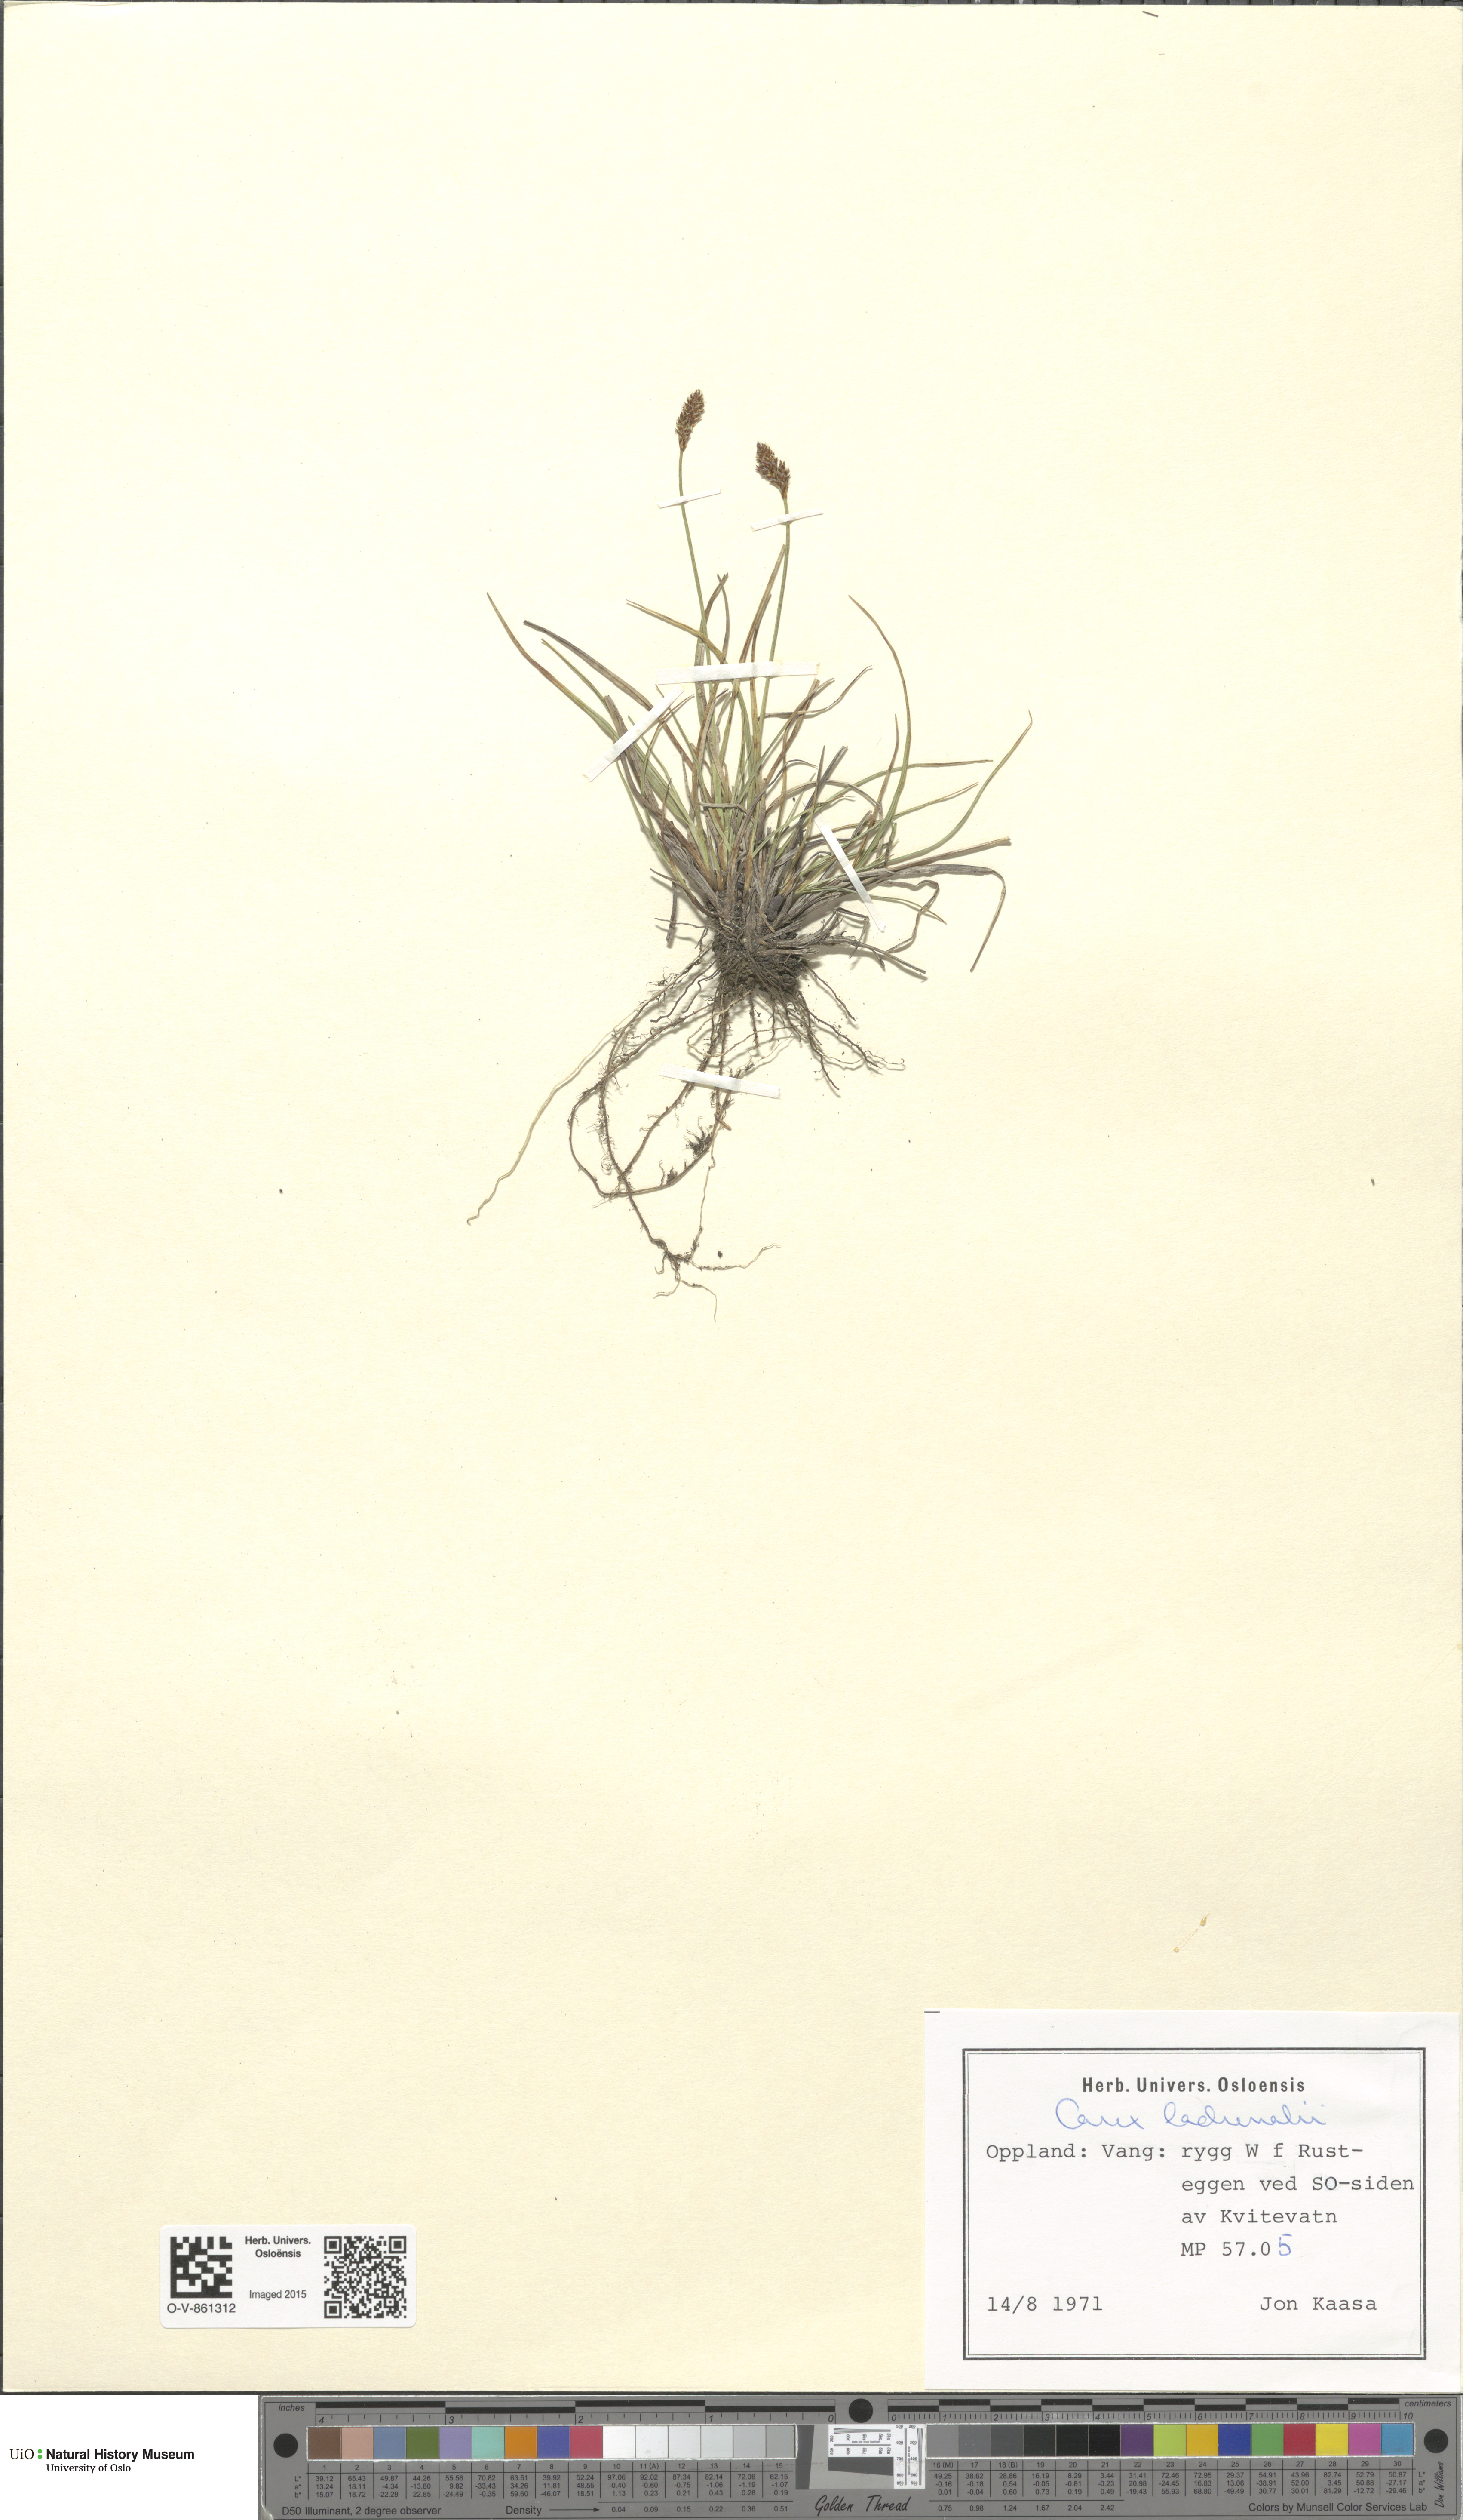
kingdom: Plantae
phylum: Tracheophyta
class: Liliopsida
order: Poales
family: Cyperaceae
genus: Carex
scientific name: Carex lachenalii
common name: Hare's-foot sedge
